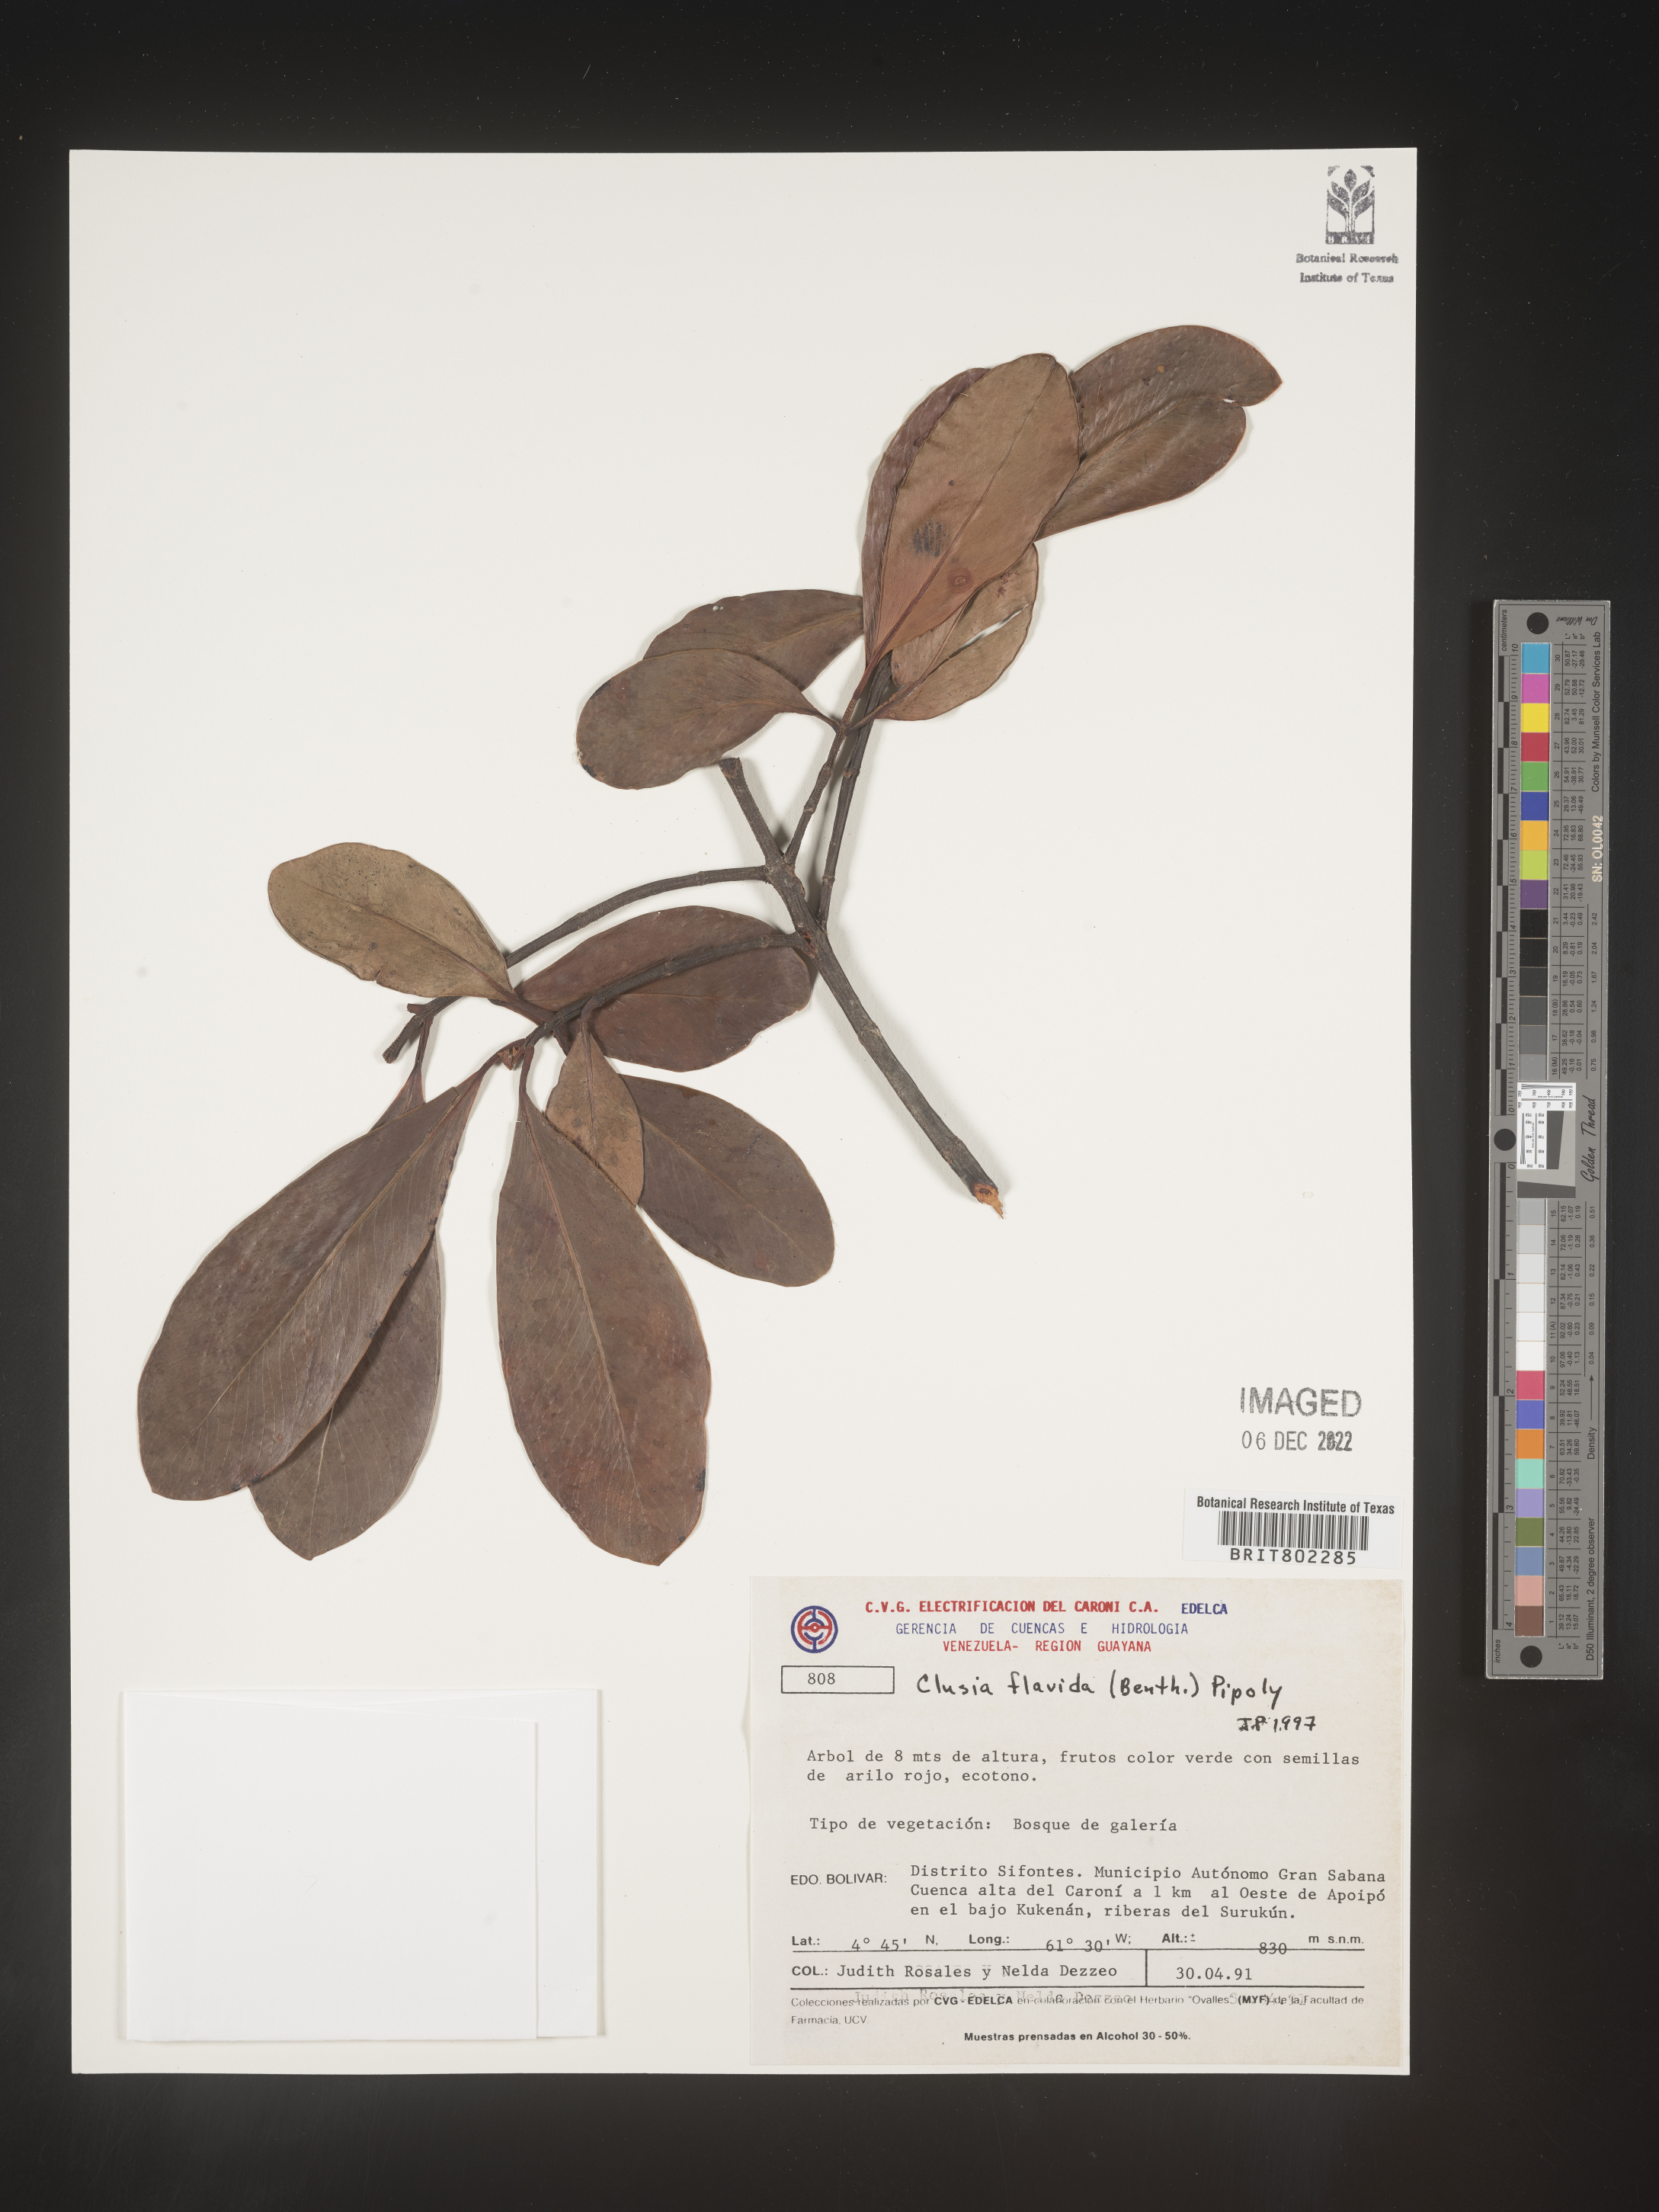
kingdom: Plantae
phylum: Tracheophyta
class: Magnoliopsida
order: Malpighiales
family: Clusiaceae
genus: Clusia
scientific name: Clusia flavida
